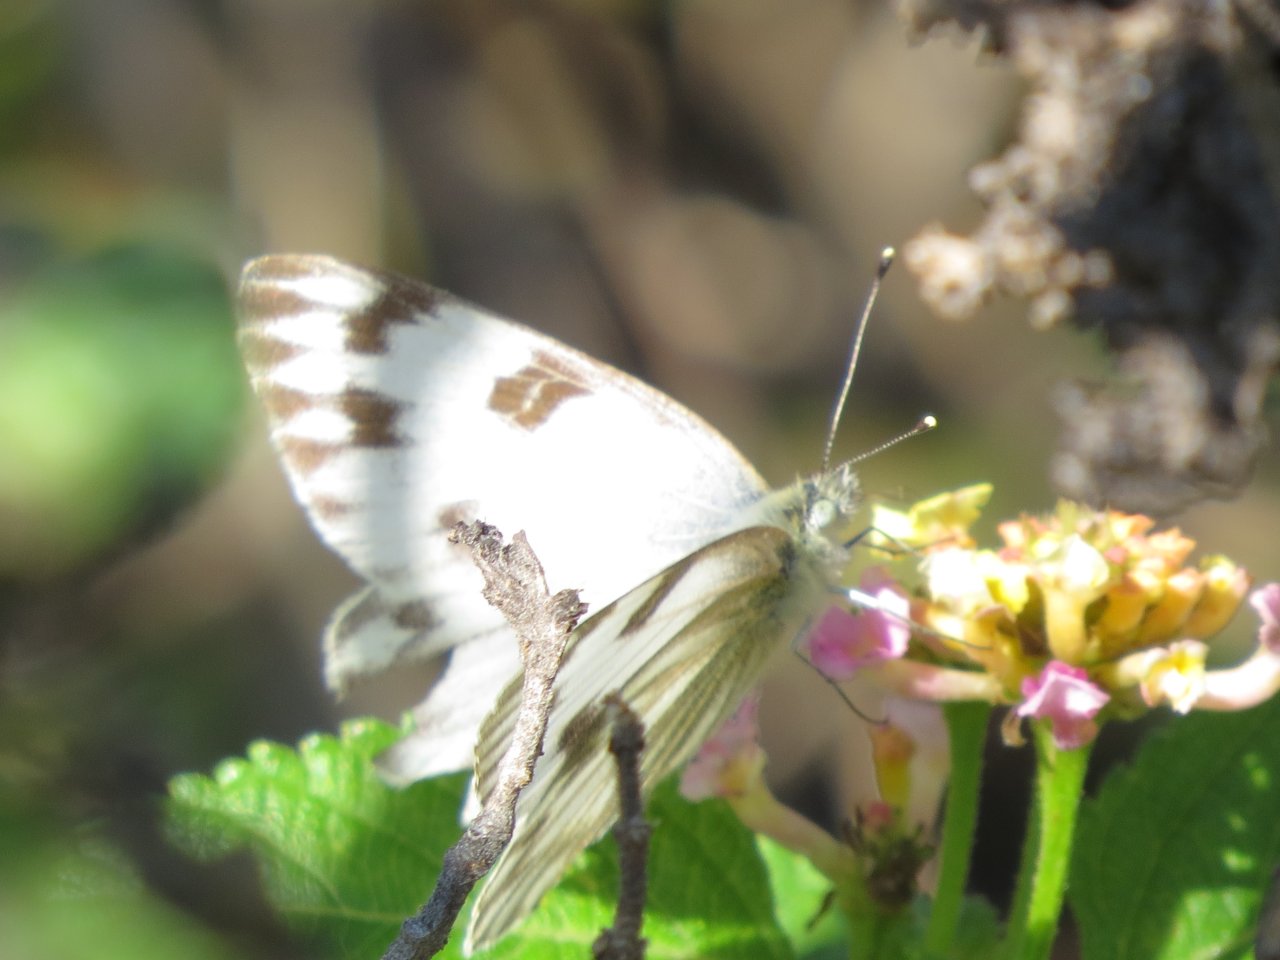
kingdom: Animalia
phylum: Arthropoda
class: Insecta
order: Lepidoptera
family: Pieridae
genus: Pontia
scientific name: Pontia protodice
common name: Checkered White
